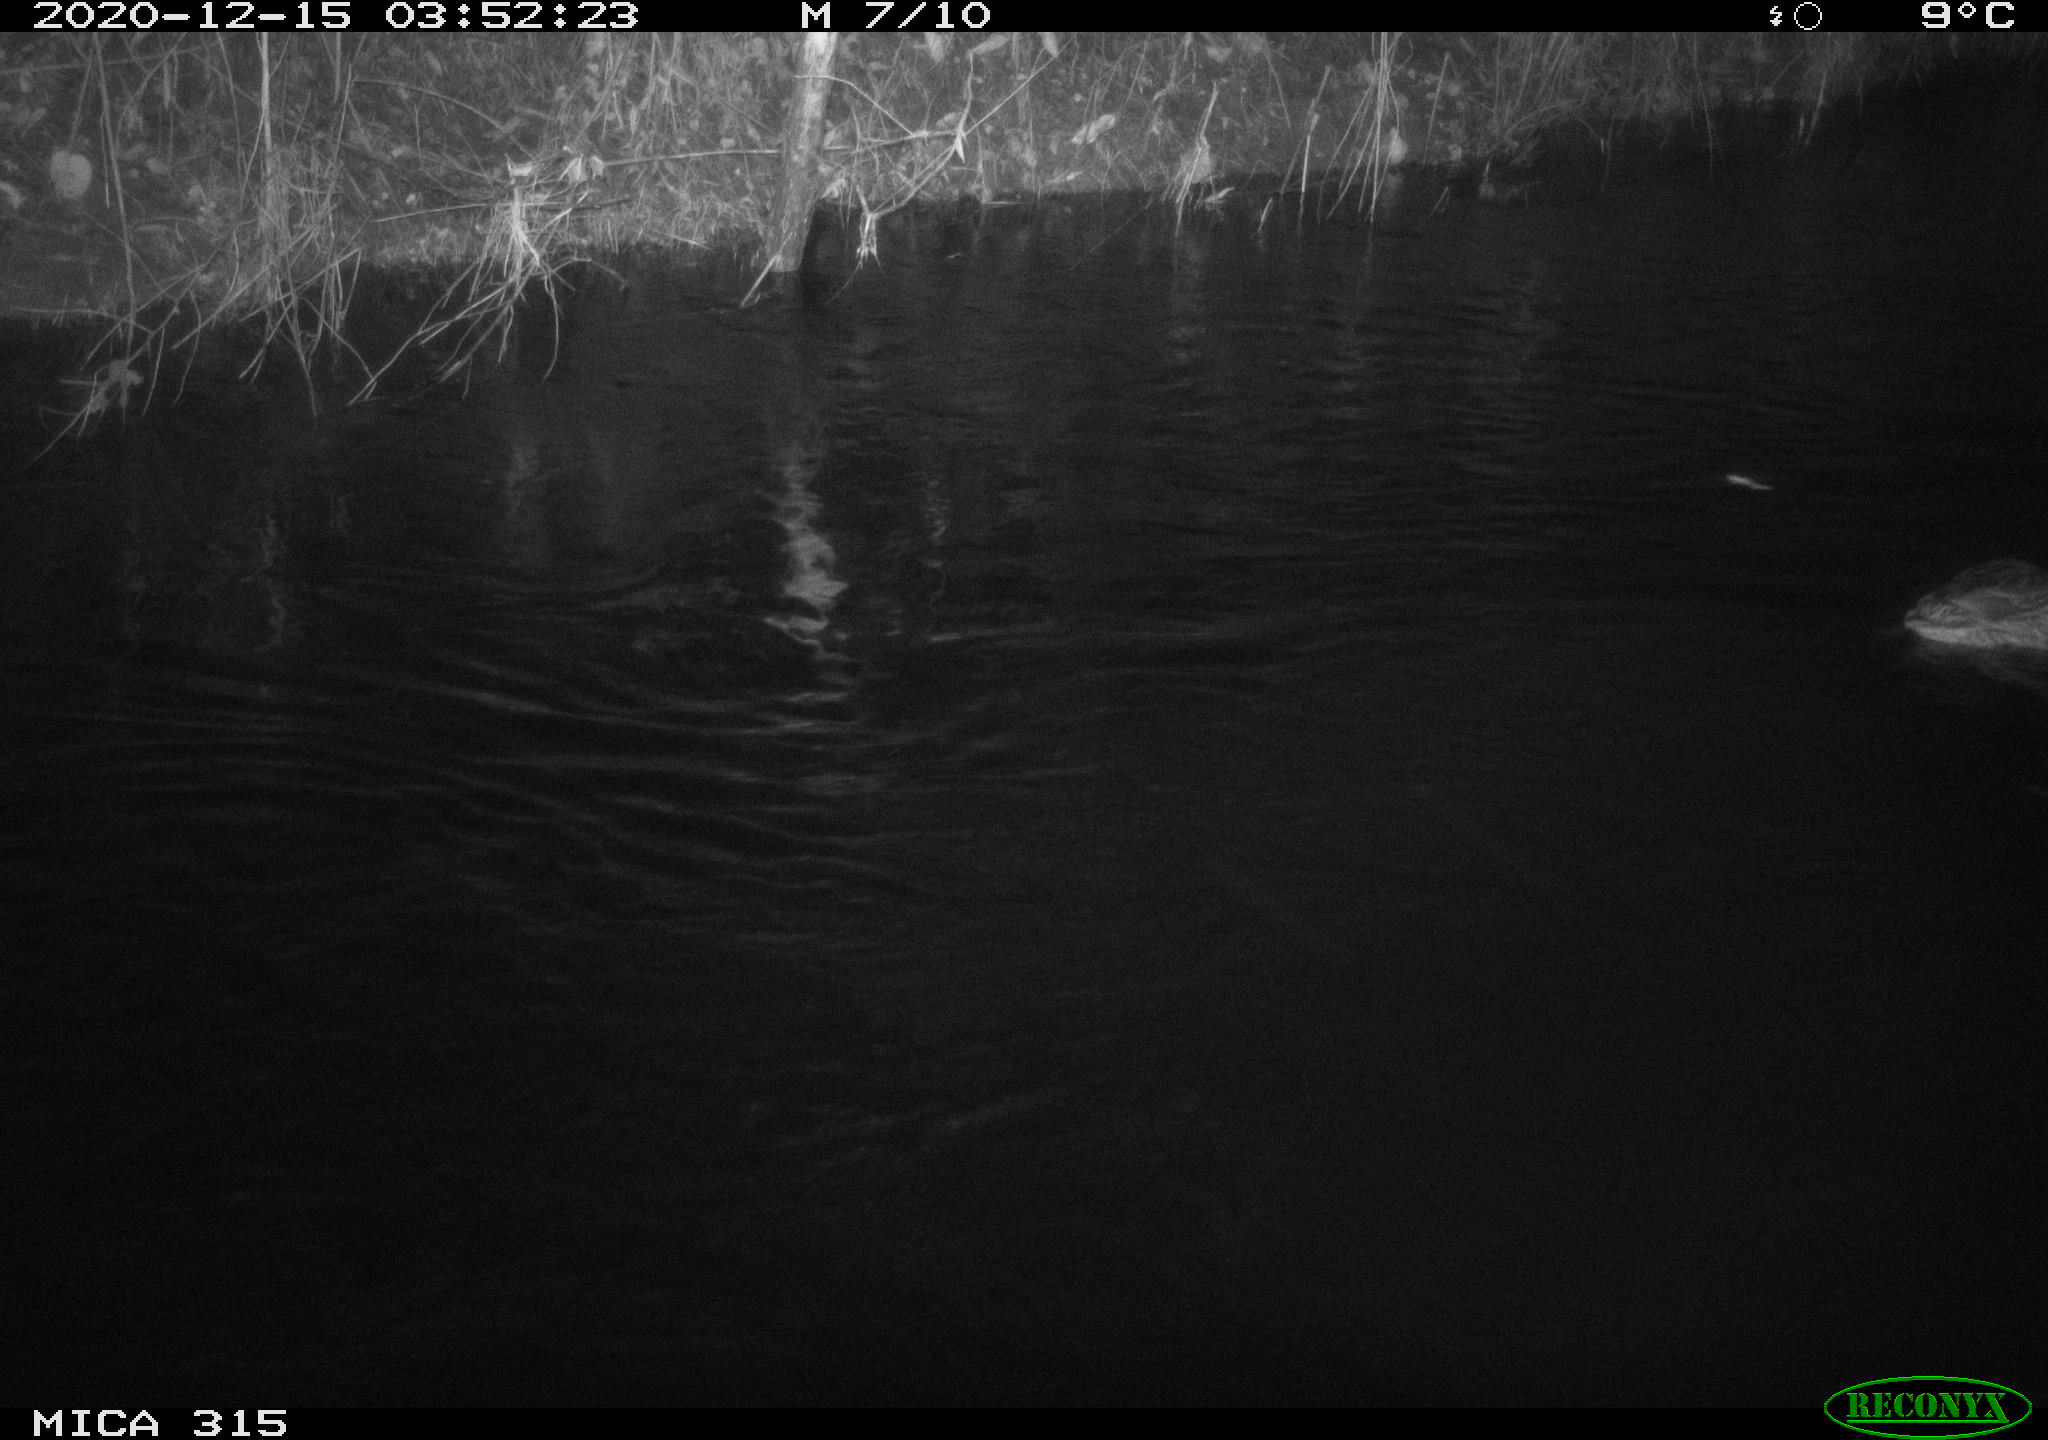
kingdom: Animalia
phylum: Chordata
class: Aves
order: Anseriformes
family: Anatidae
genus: Anas
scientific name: Anas platyrhynchos
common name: Mallard
